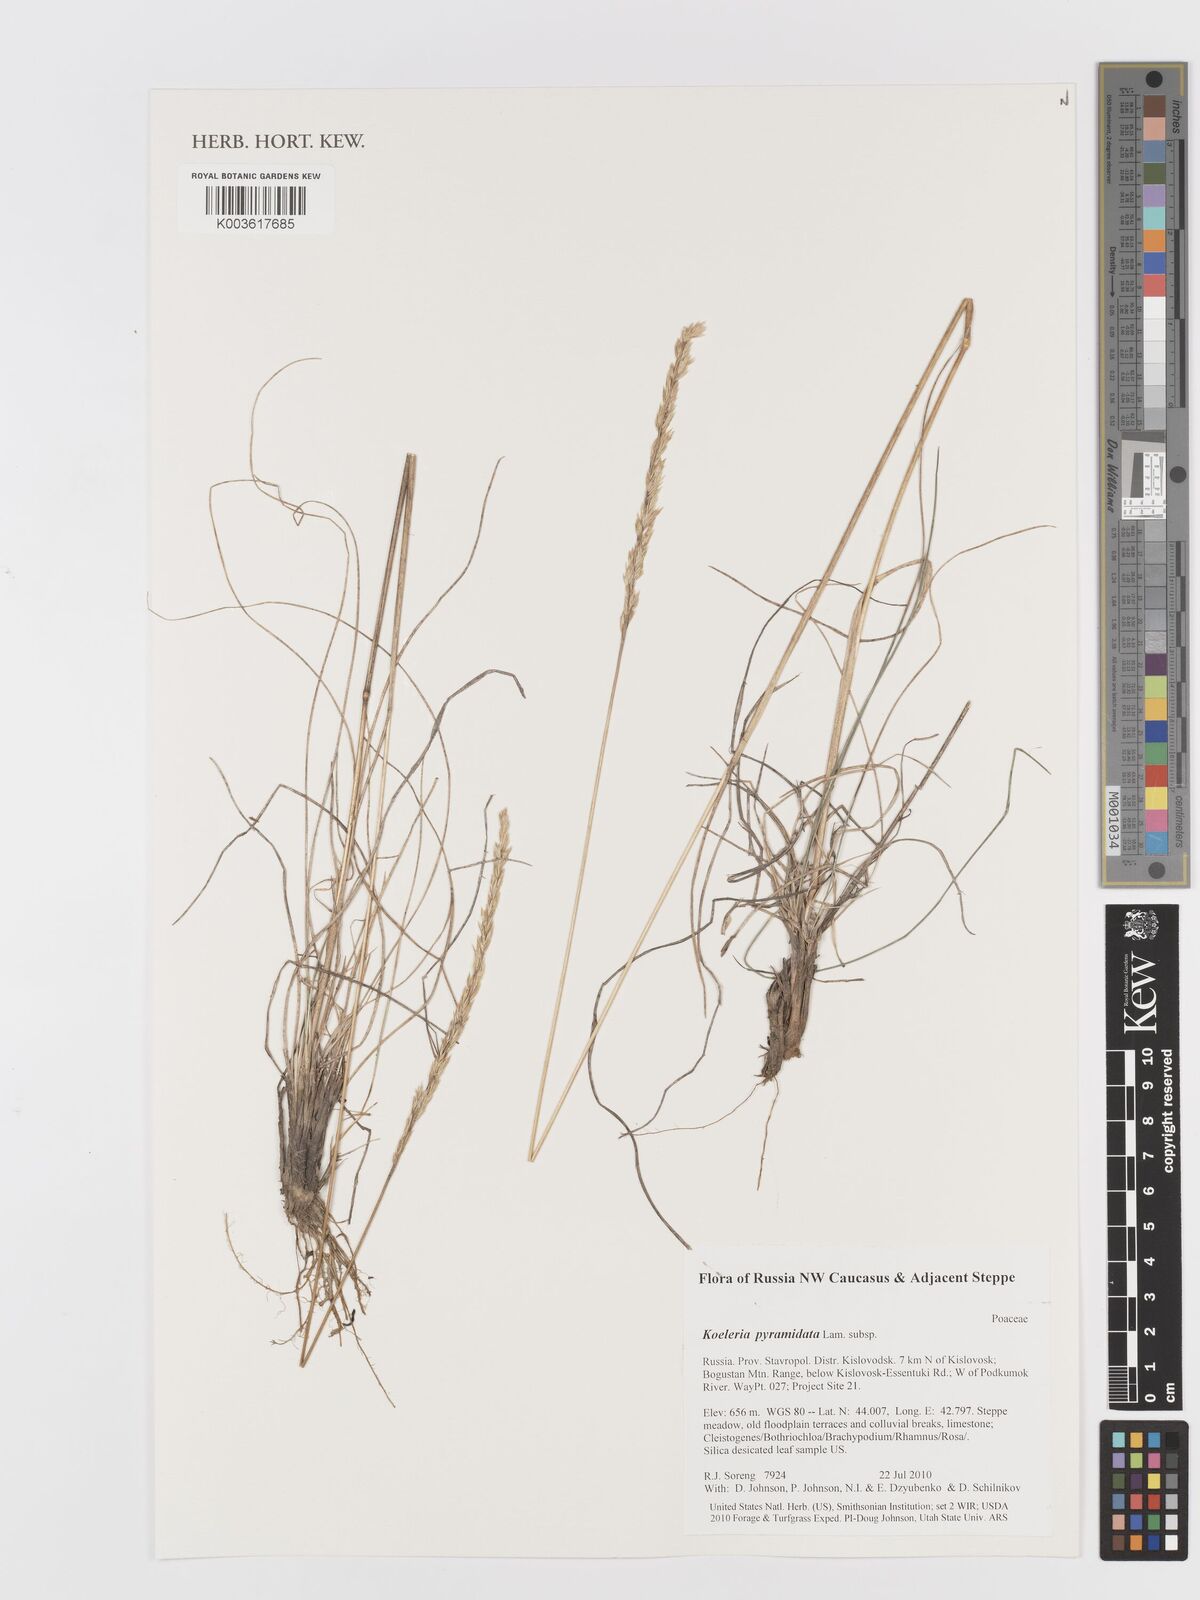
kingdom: Plantae
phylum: Tracheophyta
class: Liliopsida
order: Poales
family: Poaceae
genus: Koeleria
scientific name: Koeleria pyramidata
